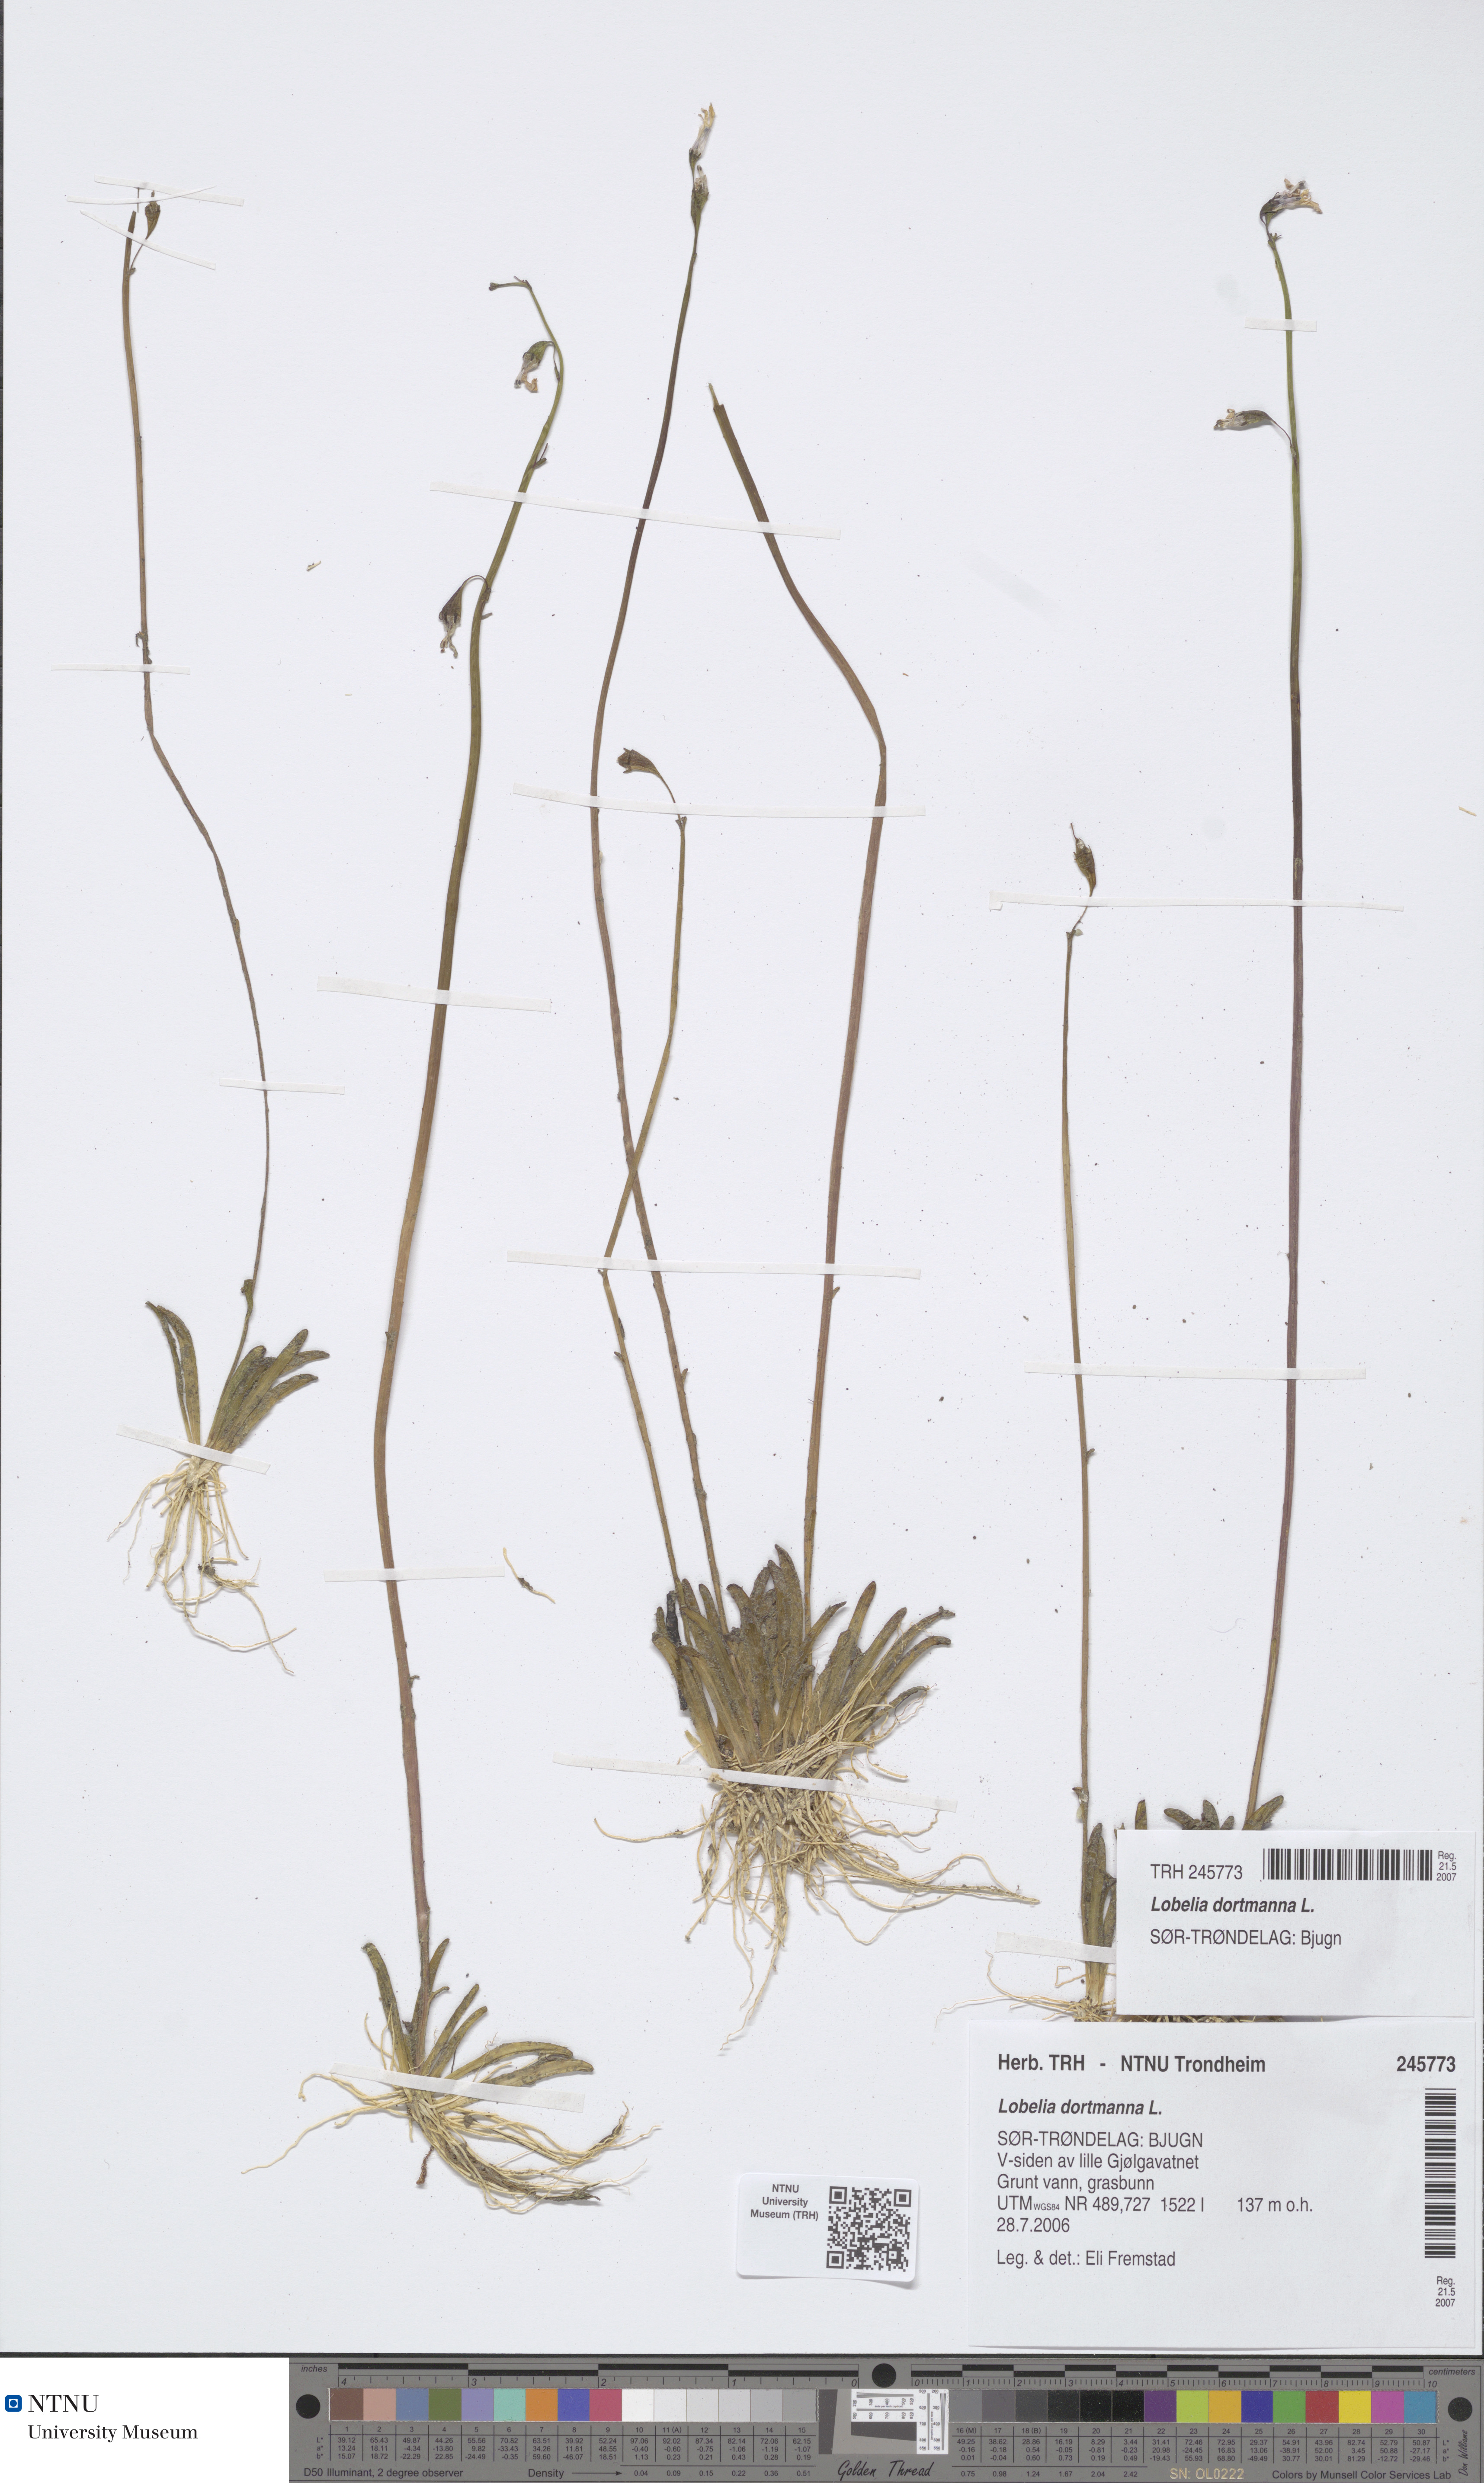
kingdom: Plantae
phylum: Tracheophyta
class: Magnoliopsida
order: Asterales
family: Campanulaceae
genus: Lobelia
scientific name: Lobelia dortmanna
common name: Water lobelia
